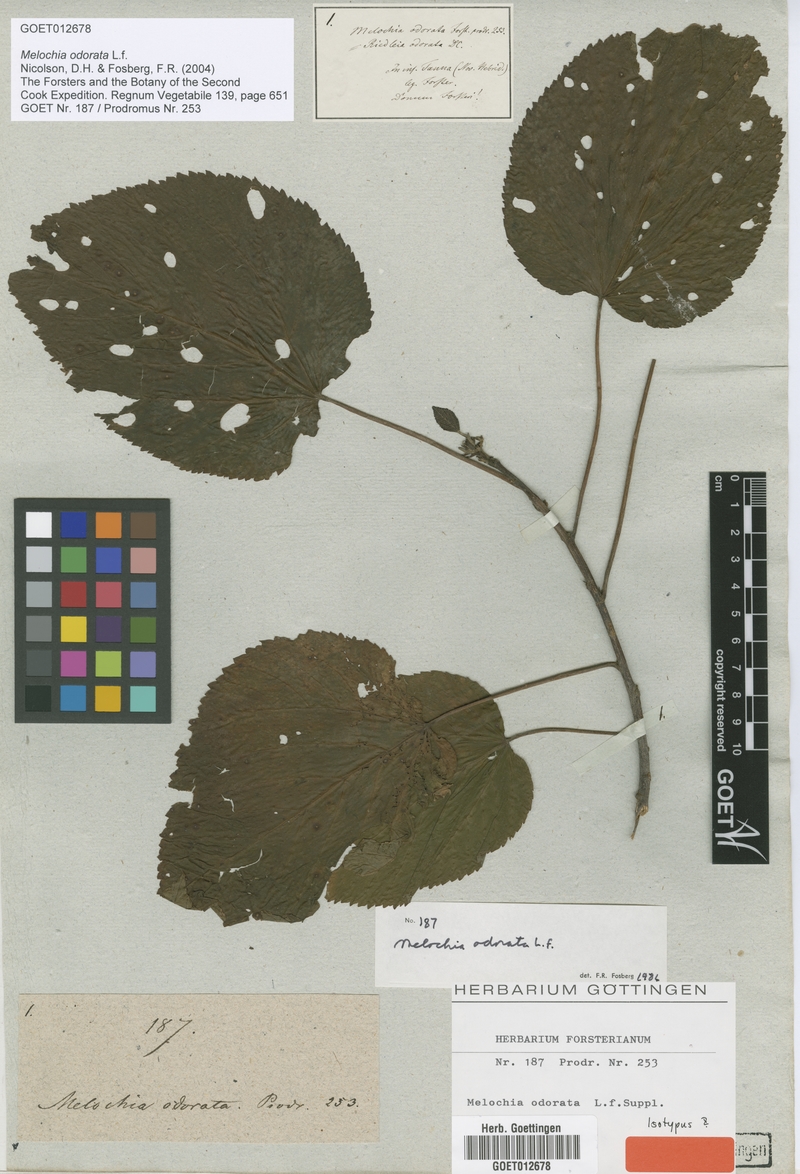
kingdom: Plantae
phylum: Tracheophyta
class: Magnoliopsida
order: Malvales
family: Malvaceae
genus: Melochia
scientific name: Melochia odorata
